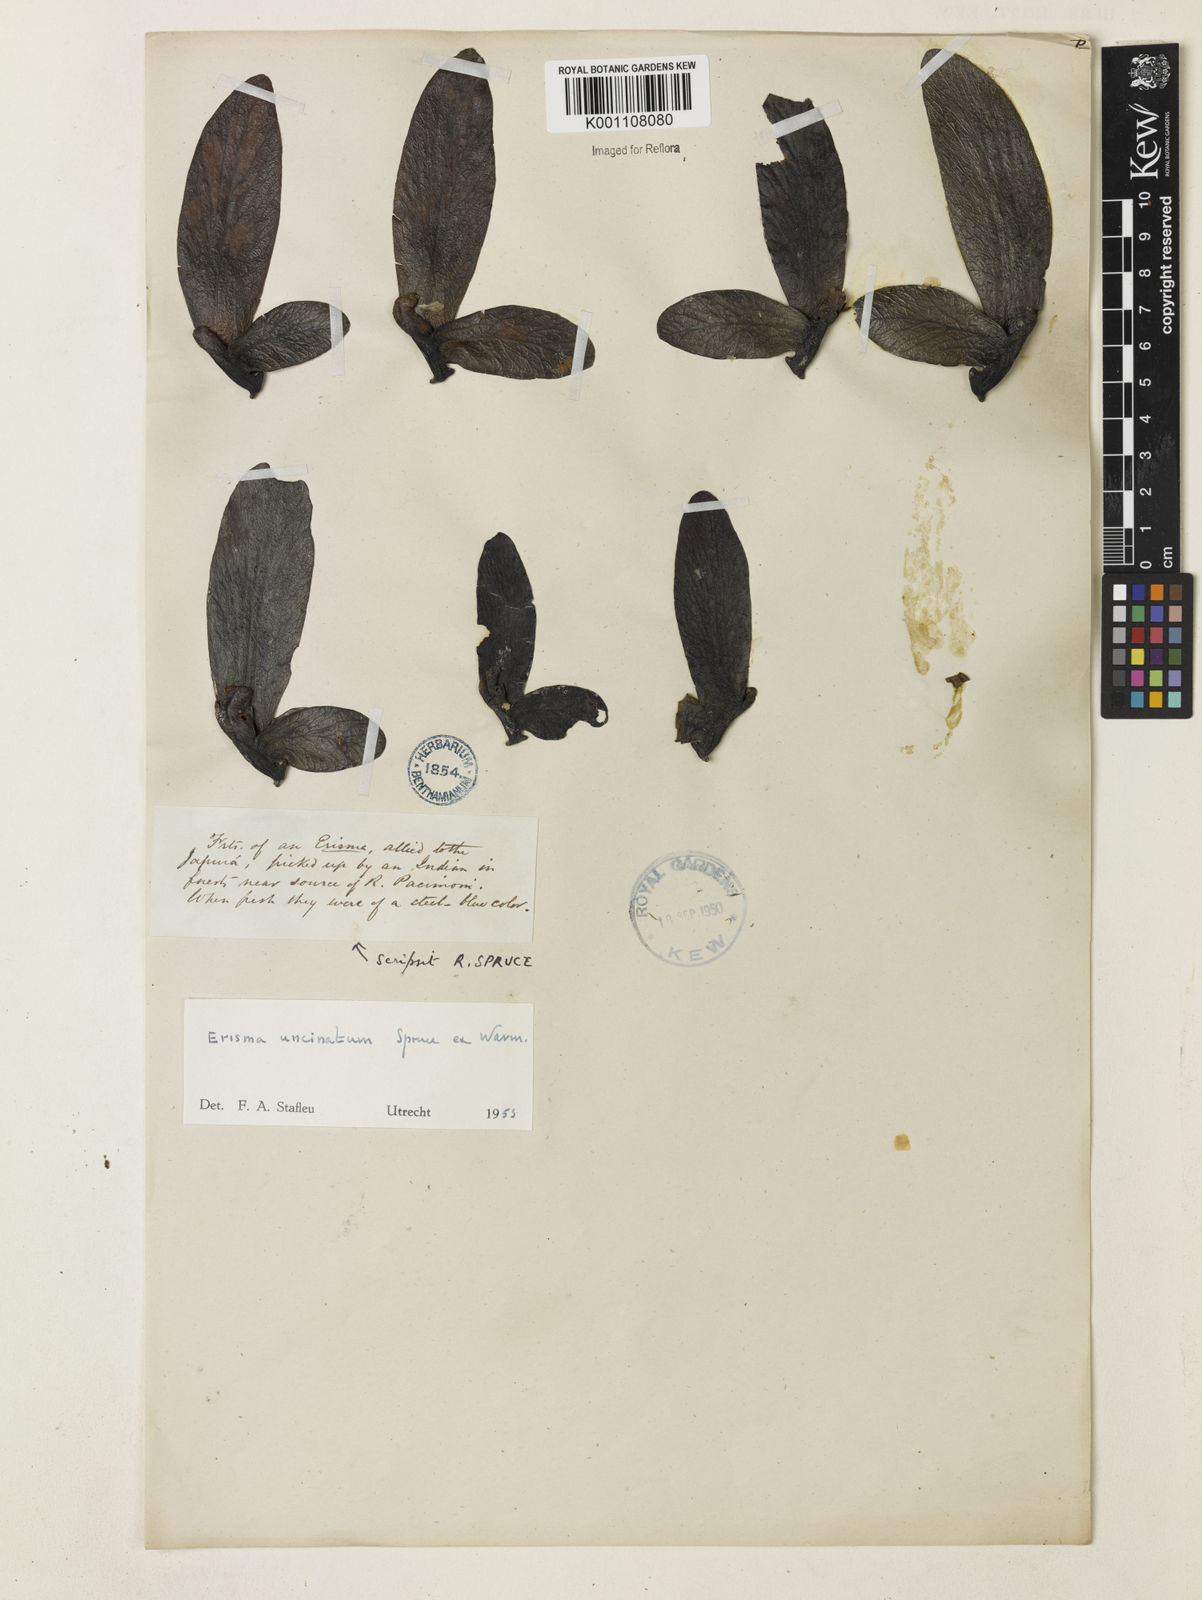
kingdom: Plantae
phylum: Tracheophyta
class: Magnoliopsida
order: Myrtales
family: Vochysiaceae
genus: Erisma
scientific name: Erisma uncinatum
